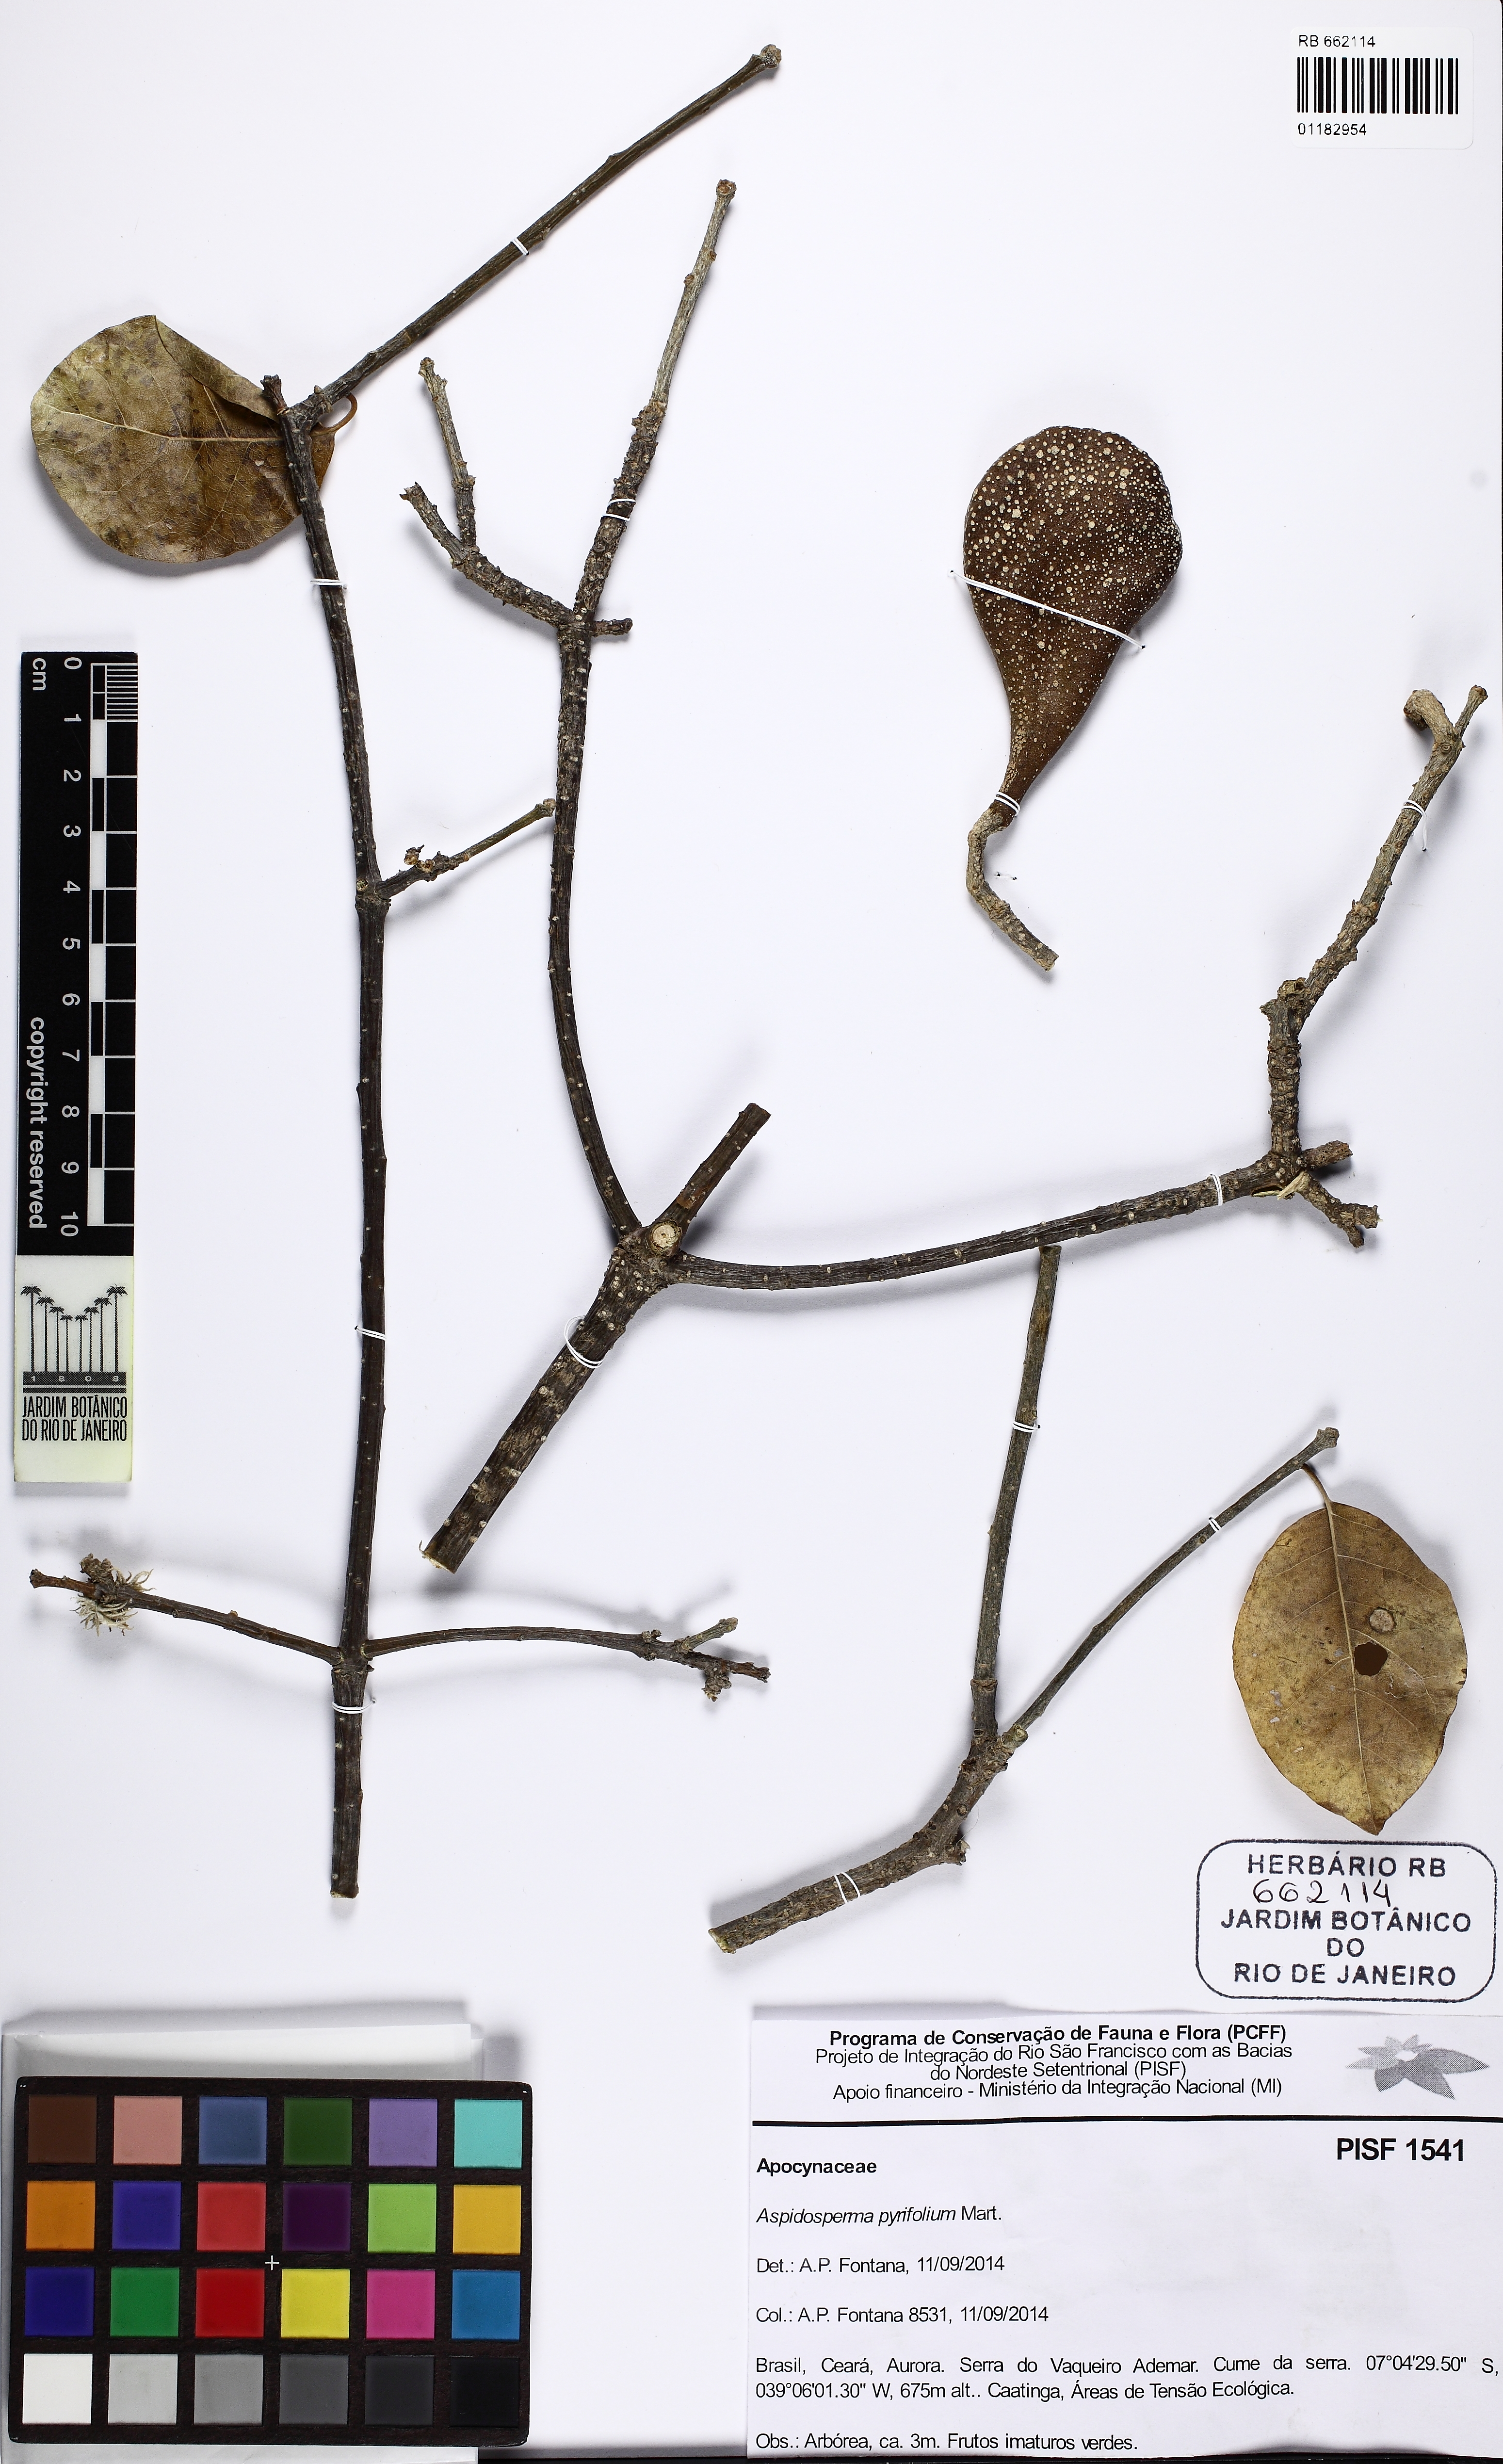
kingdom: Plantae
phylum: Tracheophyta
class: Magnoliopsida
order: Gentianales
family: Apocynaceae
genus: Aspidosperma
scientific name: Aspidosperma pyrifolium
